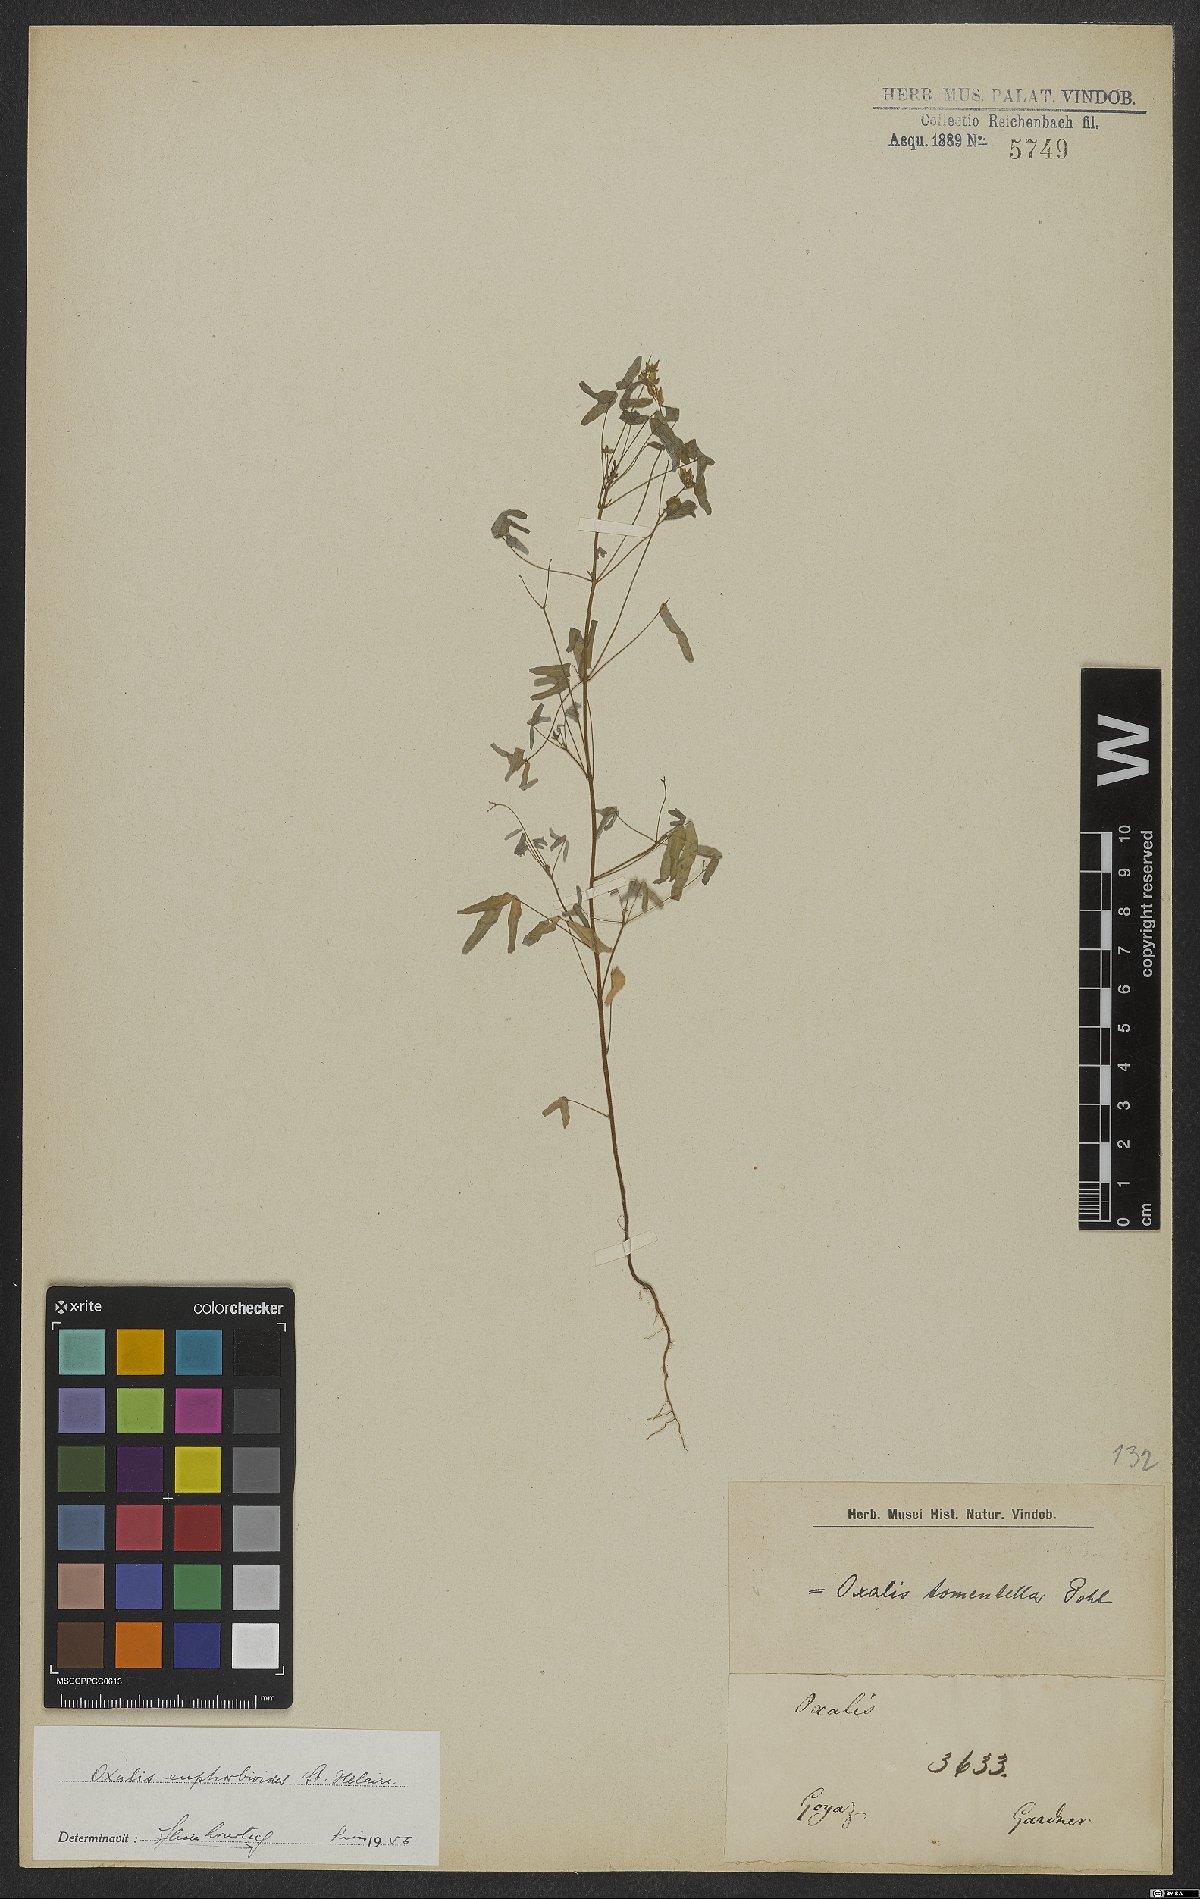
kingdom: Plantae
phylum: Tracheophyta
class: Magnoliopsida
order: Oxalidales
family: Oxalidaceae
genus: Oxalis
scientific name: Oxalis divaricata
